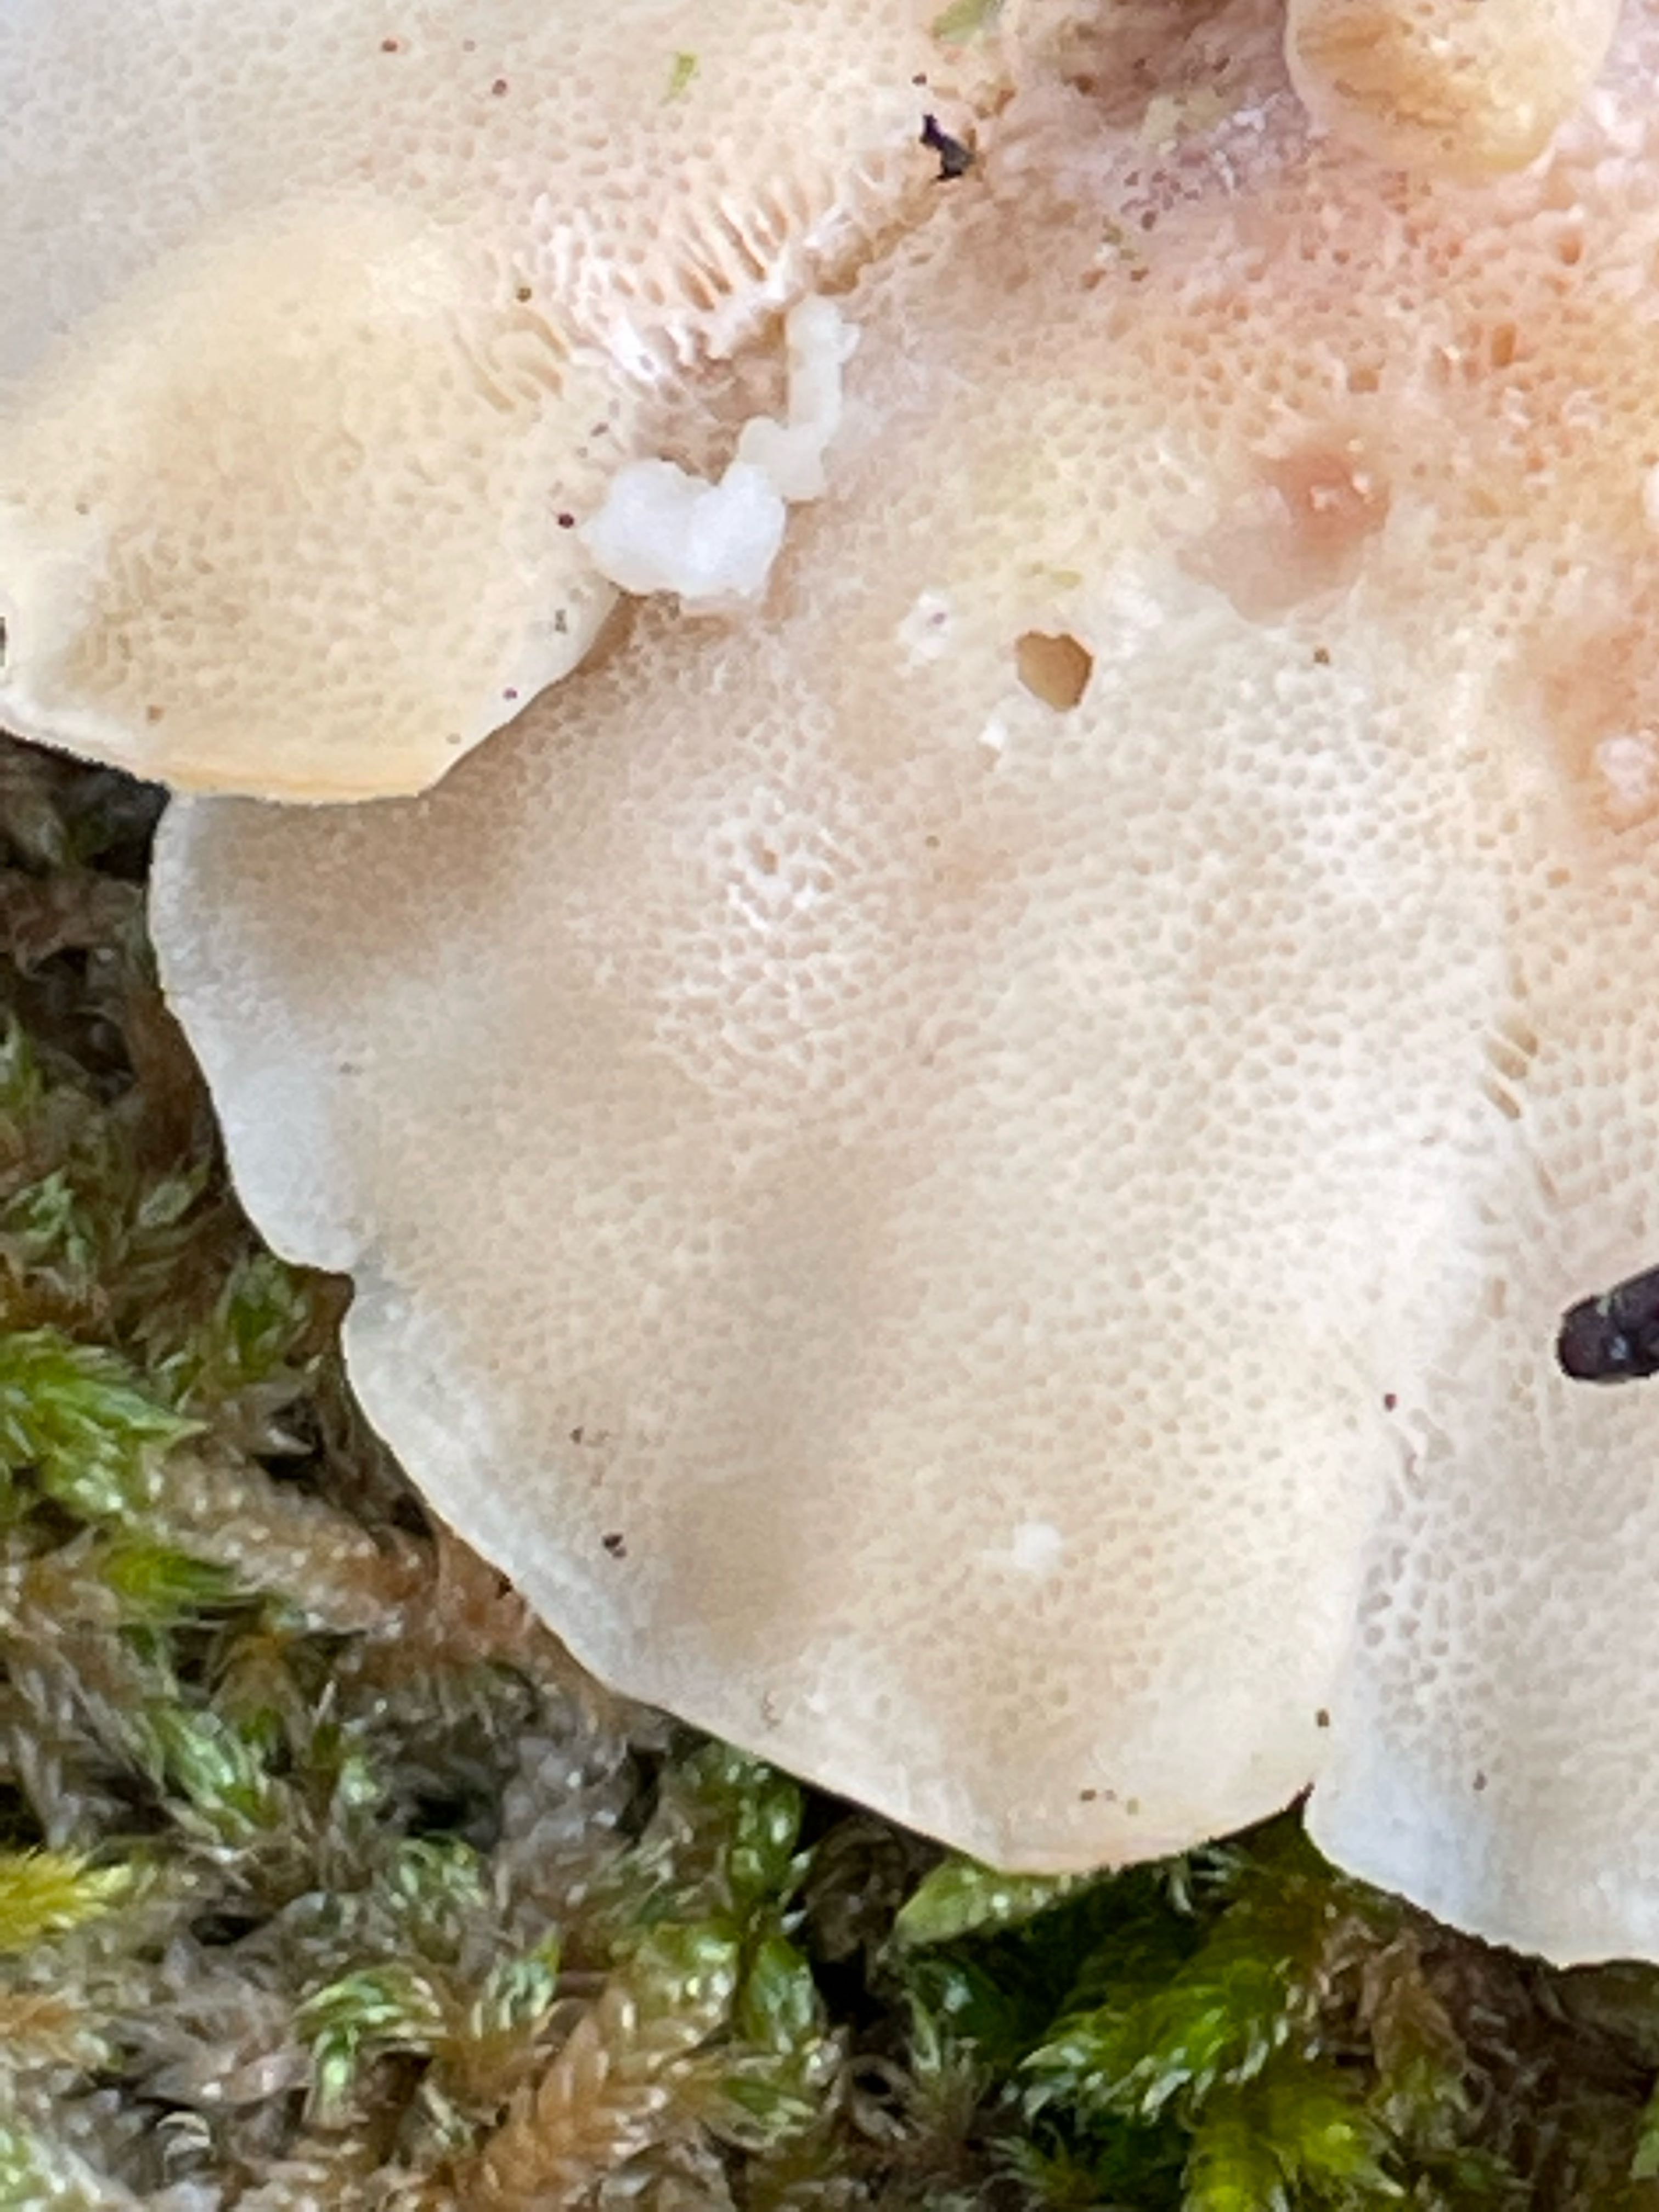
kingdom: Fungi
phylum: Basidiomycota
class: Agaricomycetes
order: Polyporales
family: Polyporaceae
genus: Trametes
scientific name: Trametes versicolor
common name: broget læderporesvamp
